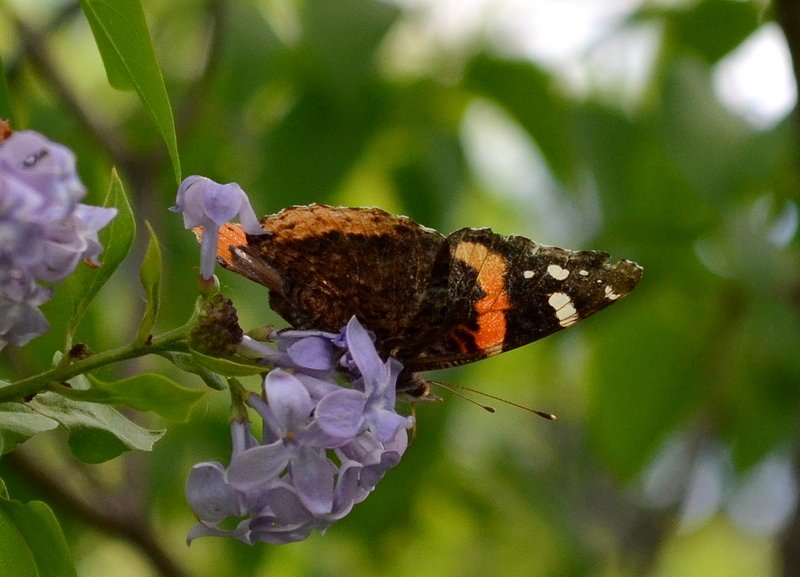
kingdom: Animalia
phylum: Arthropoda
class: Insecta
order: Lepidoptera
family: Nymphalidae
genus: Vanessa
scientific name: Vanessa atalanta
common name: Red Admiral
